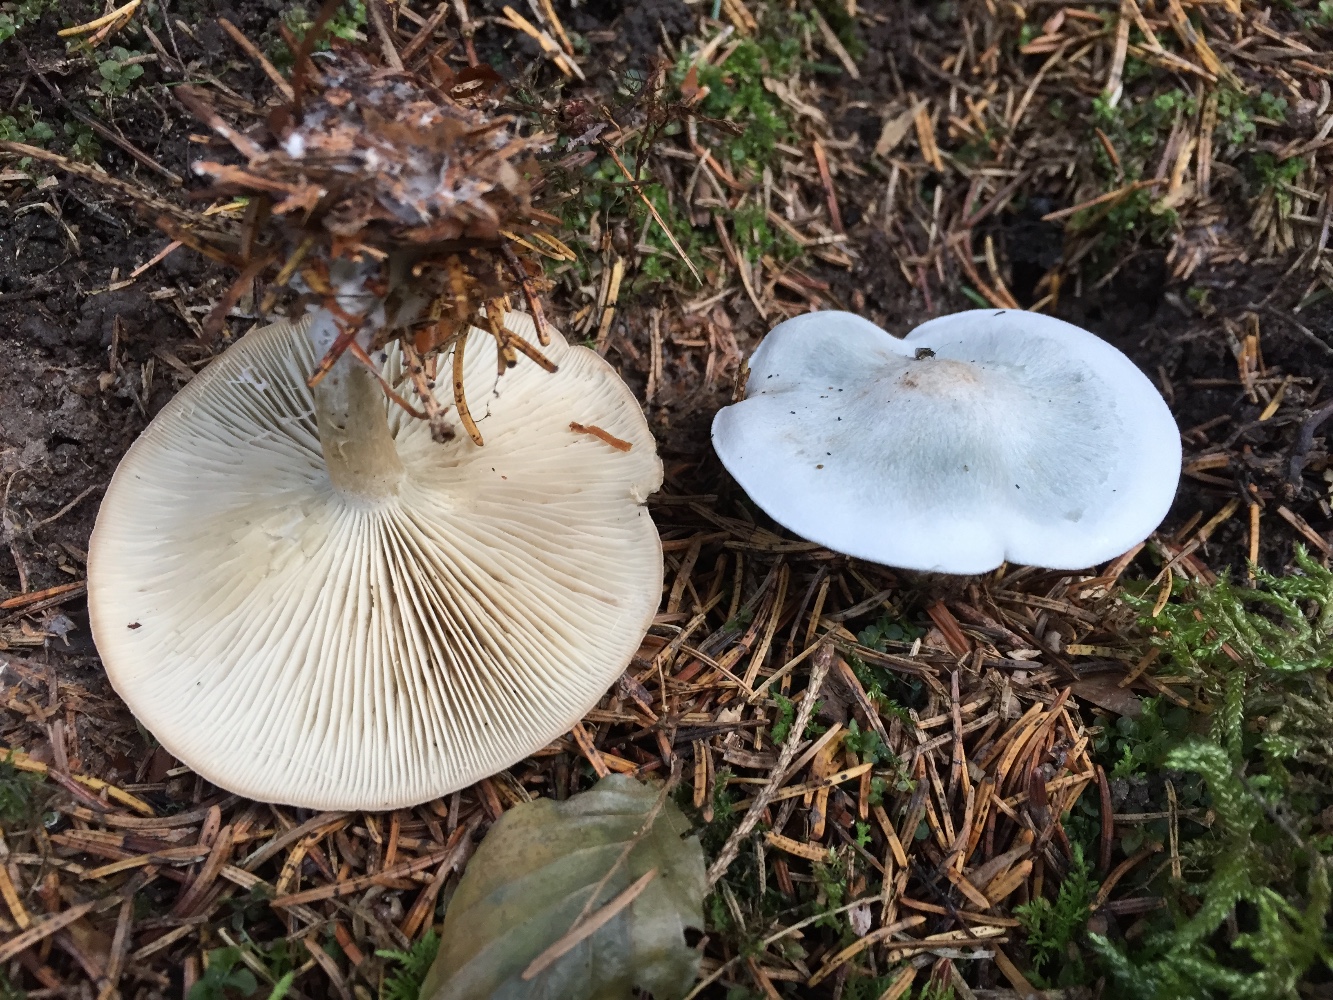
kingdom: Fungi
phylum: Basidiomycota
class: Agaricomycetes
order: Agaricales
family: Tricholomataceae
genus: Clitocybe
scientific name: Clitocybe odora
